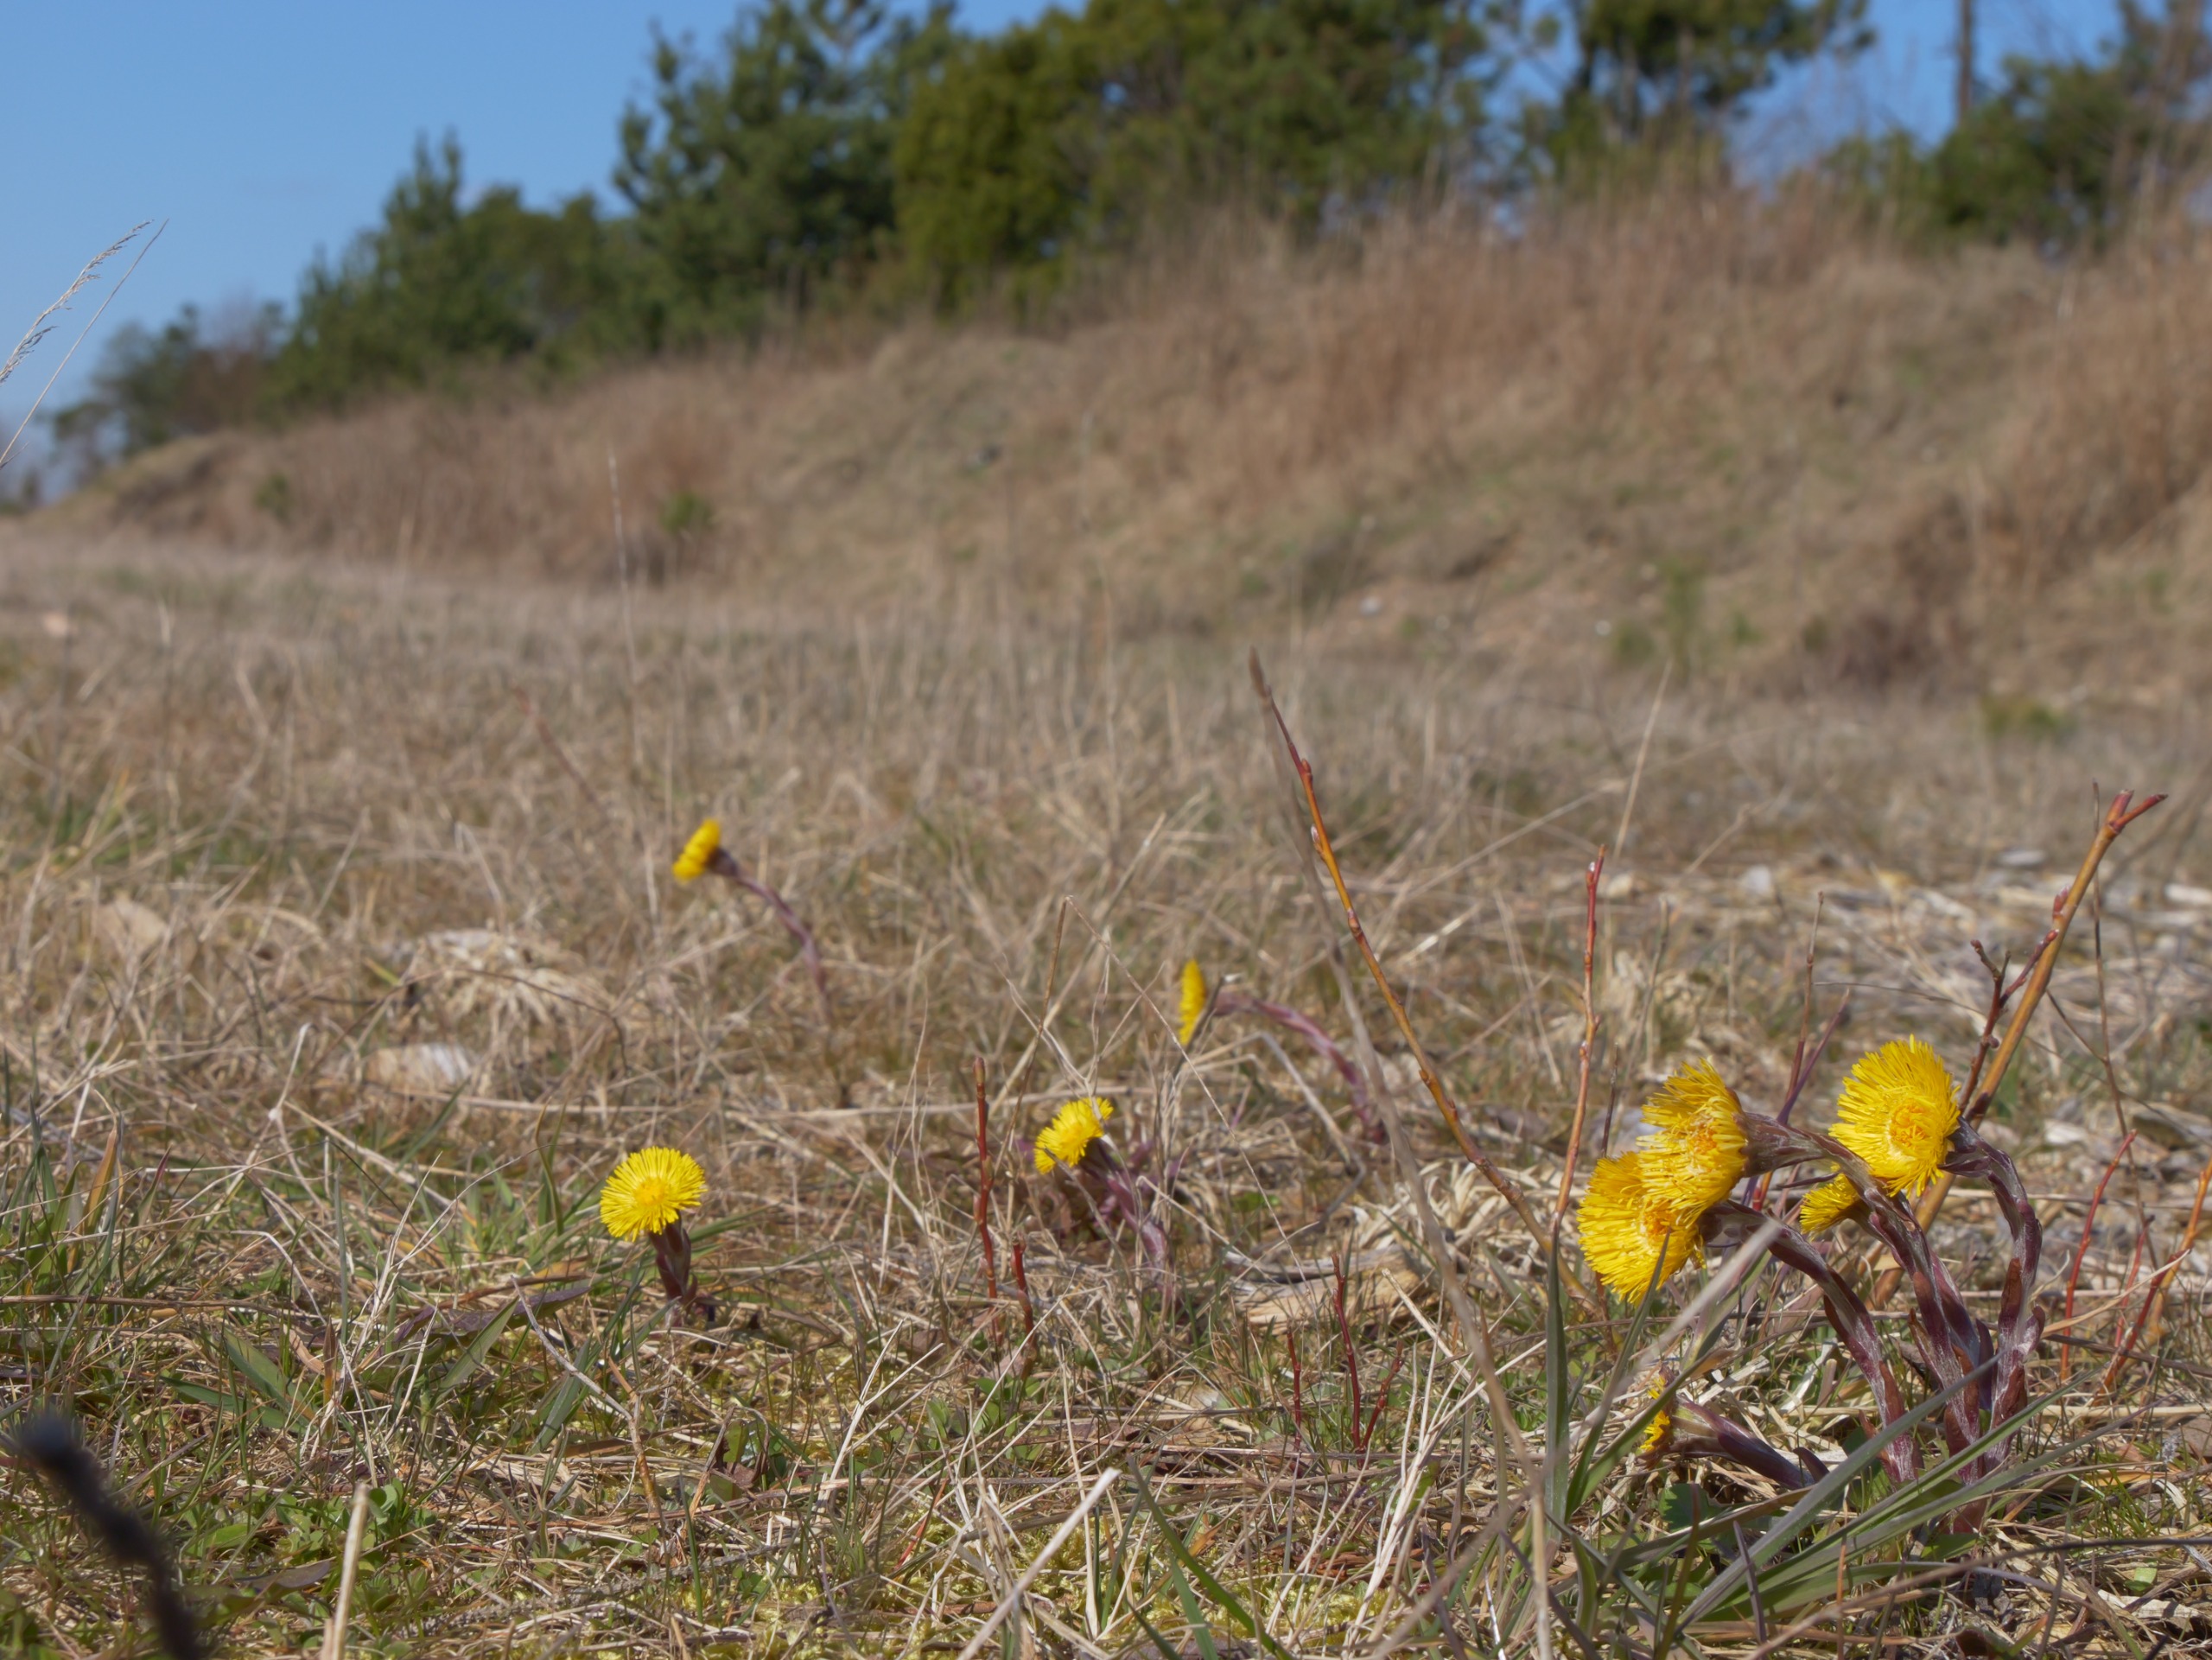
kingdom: Plantae
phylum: Tracheophyta
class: Magnoliopsida
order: Asterales
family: Asteraceae
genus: Tussilago
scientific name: Tussilago farfara
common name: Følfod
